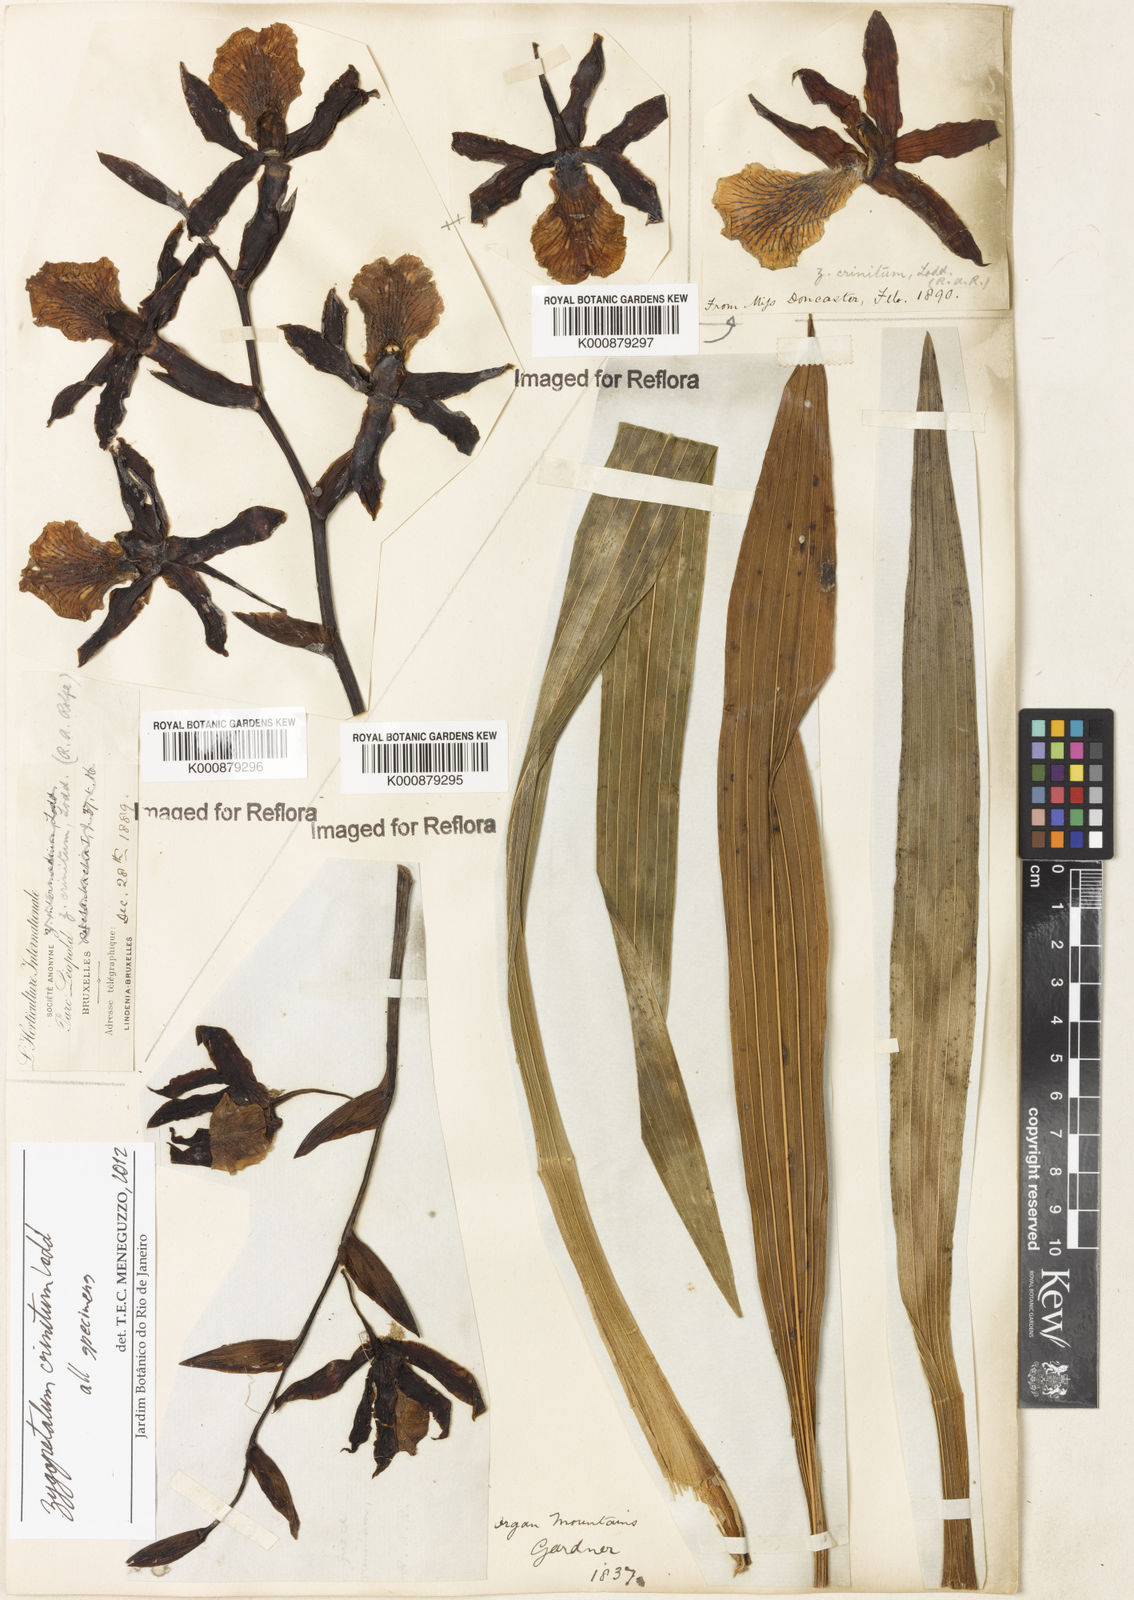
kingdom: Plantae
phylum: Tracheophyta
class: Liliopsida
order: Asparagales
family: Orchidaceae
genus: Zygopetalum
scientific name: Zygopetalum crinitum
